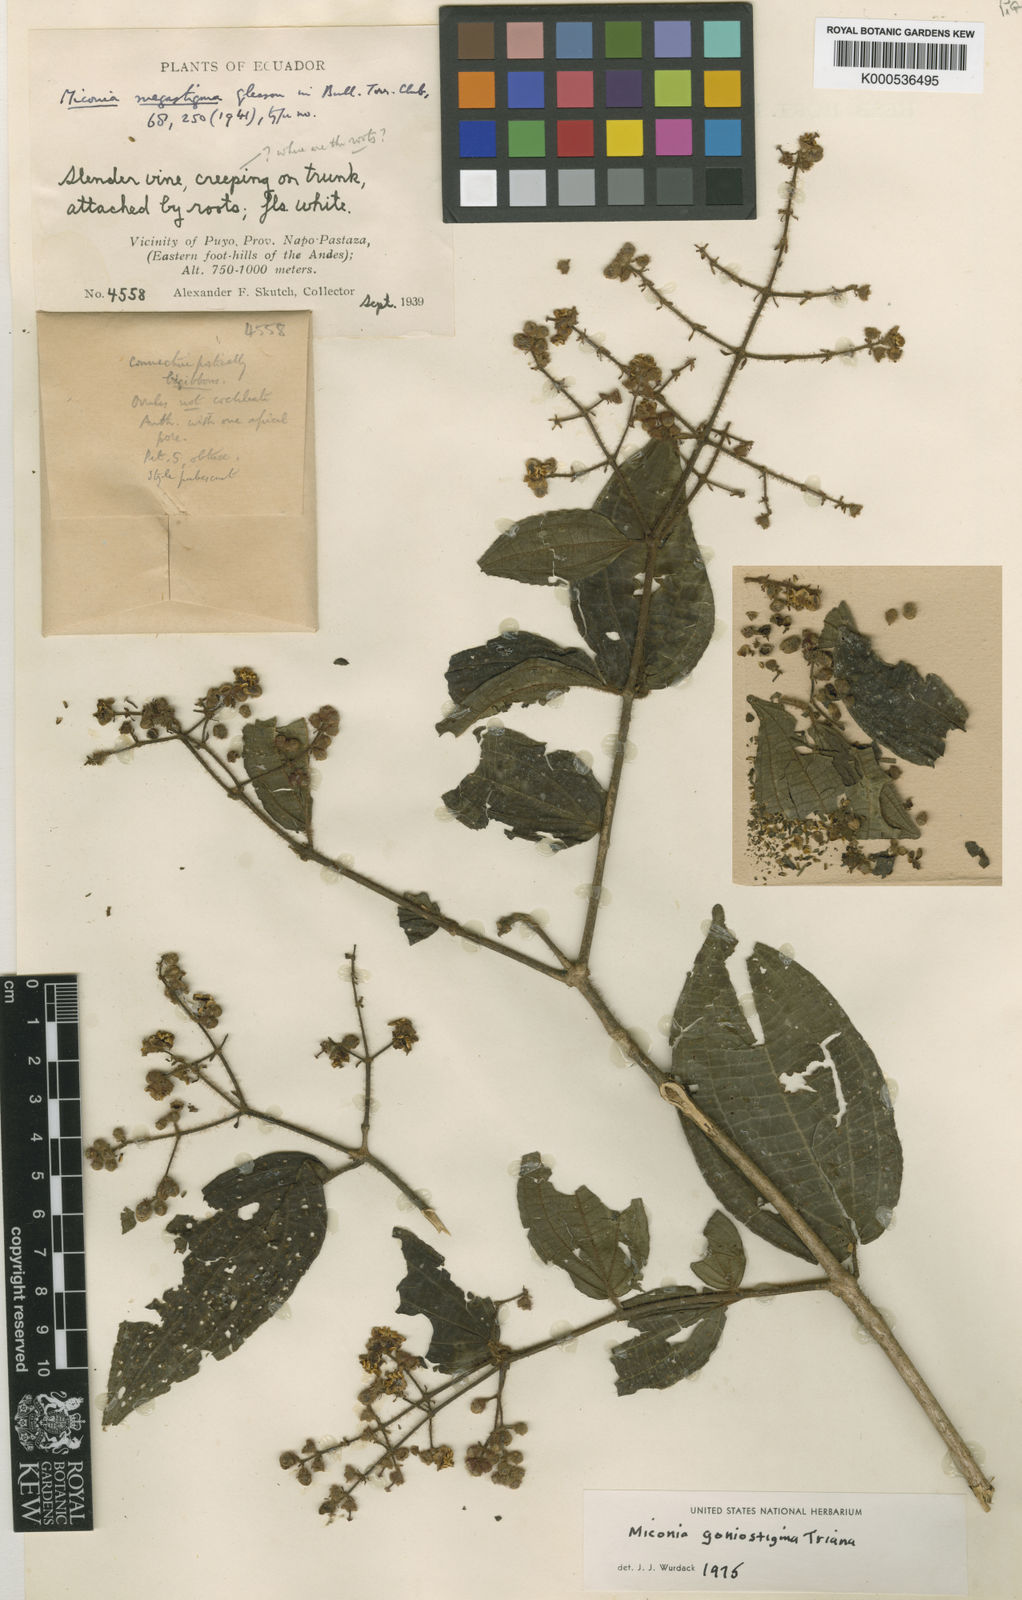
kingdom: Plantae
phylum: Tracheophyta
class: Magnoliopsida
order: Myrtales
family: Melastomataceae
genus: Miconia
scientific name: Miconia goniostigma
